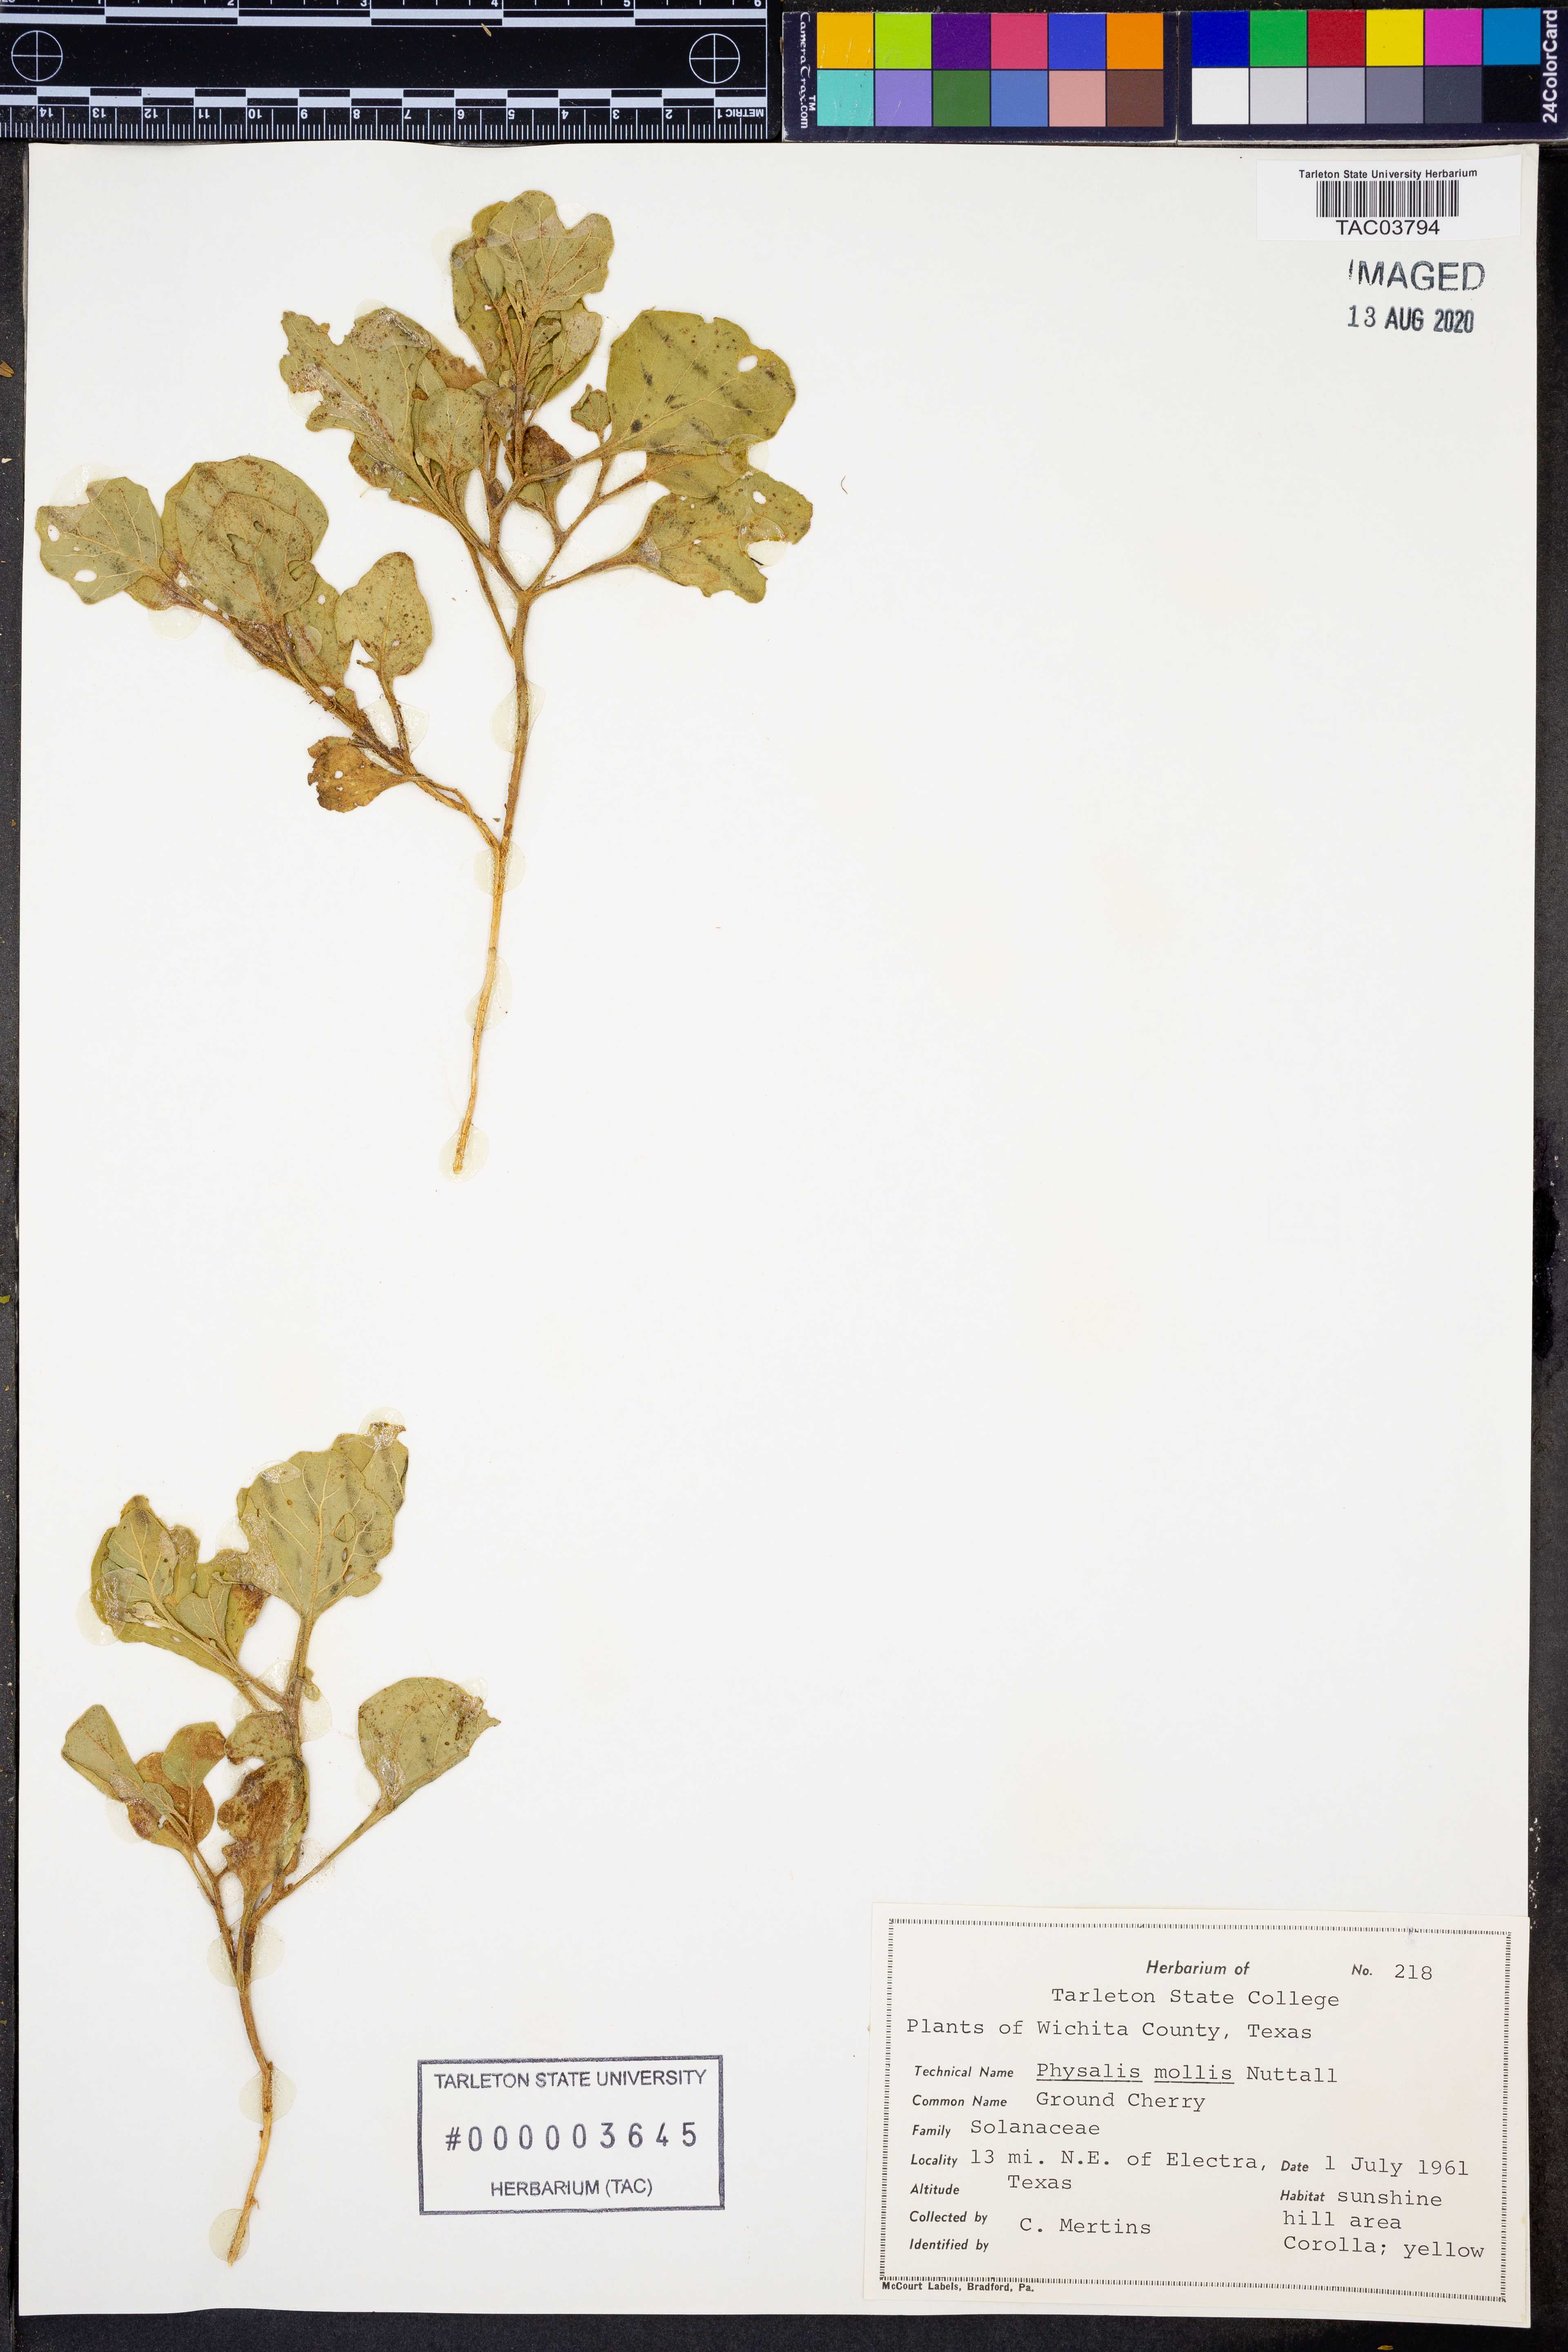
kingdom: Plantae
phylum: Tracheophyta
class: Magnoliopsida
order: Solanales
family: Solanaceae
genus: Physalis
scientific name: Physalis mollis
